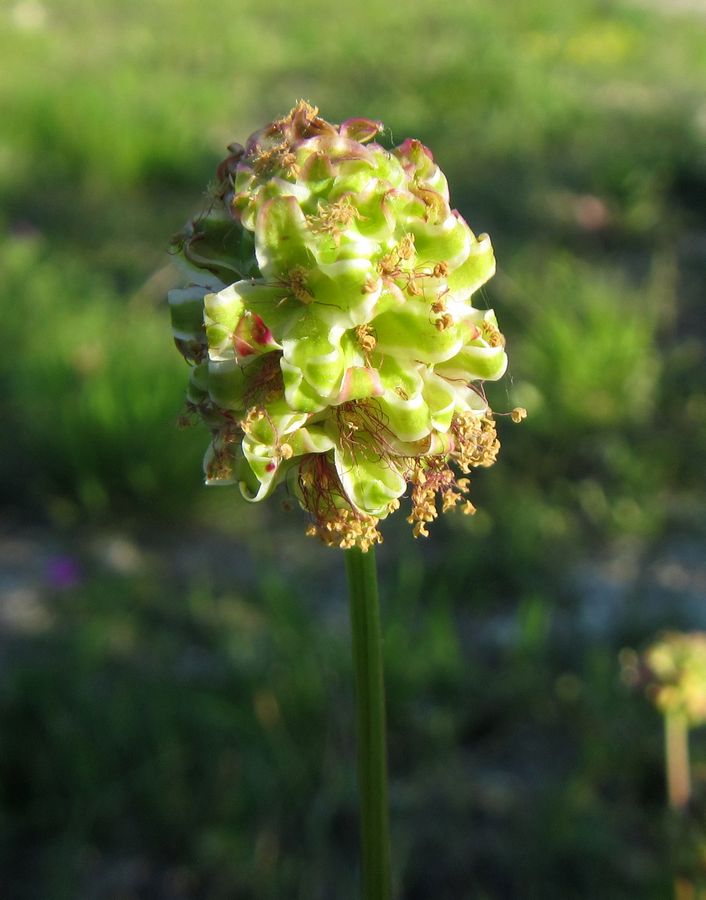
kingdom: Plantae
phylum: Tracheophyta
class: Magnoliopsida
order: Rosales
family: Rosaceae
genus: Poterium
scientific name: Poterium sanguisorba
